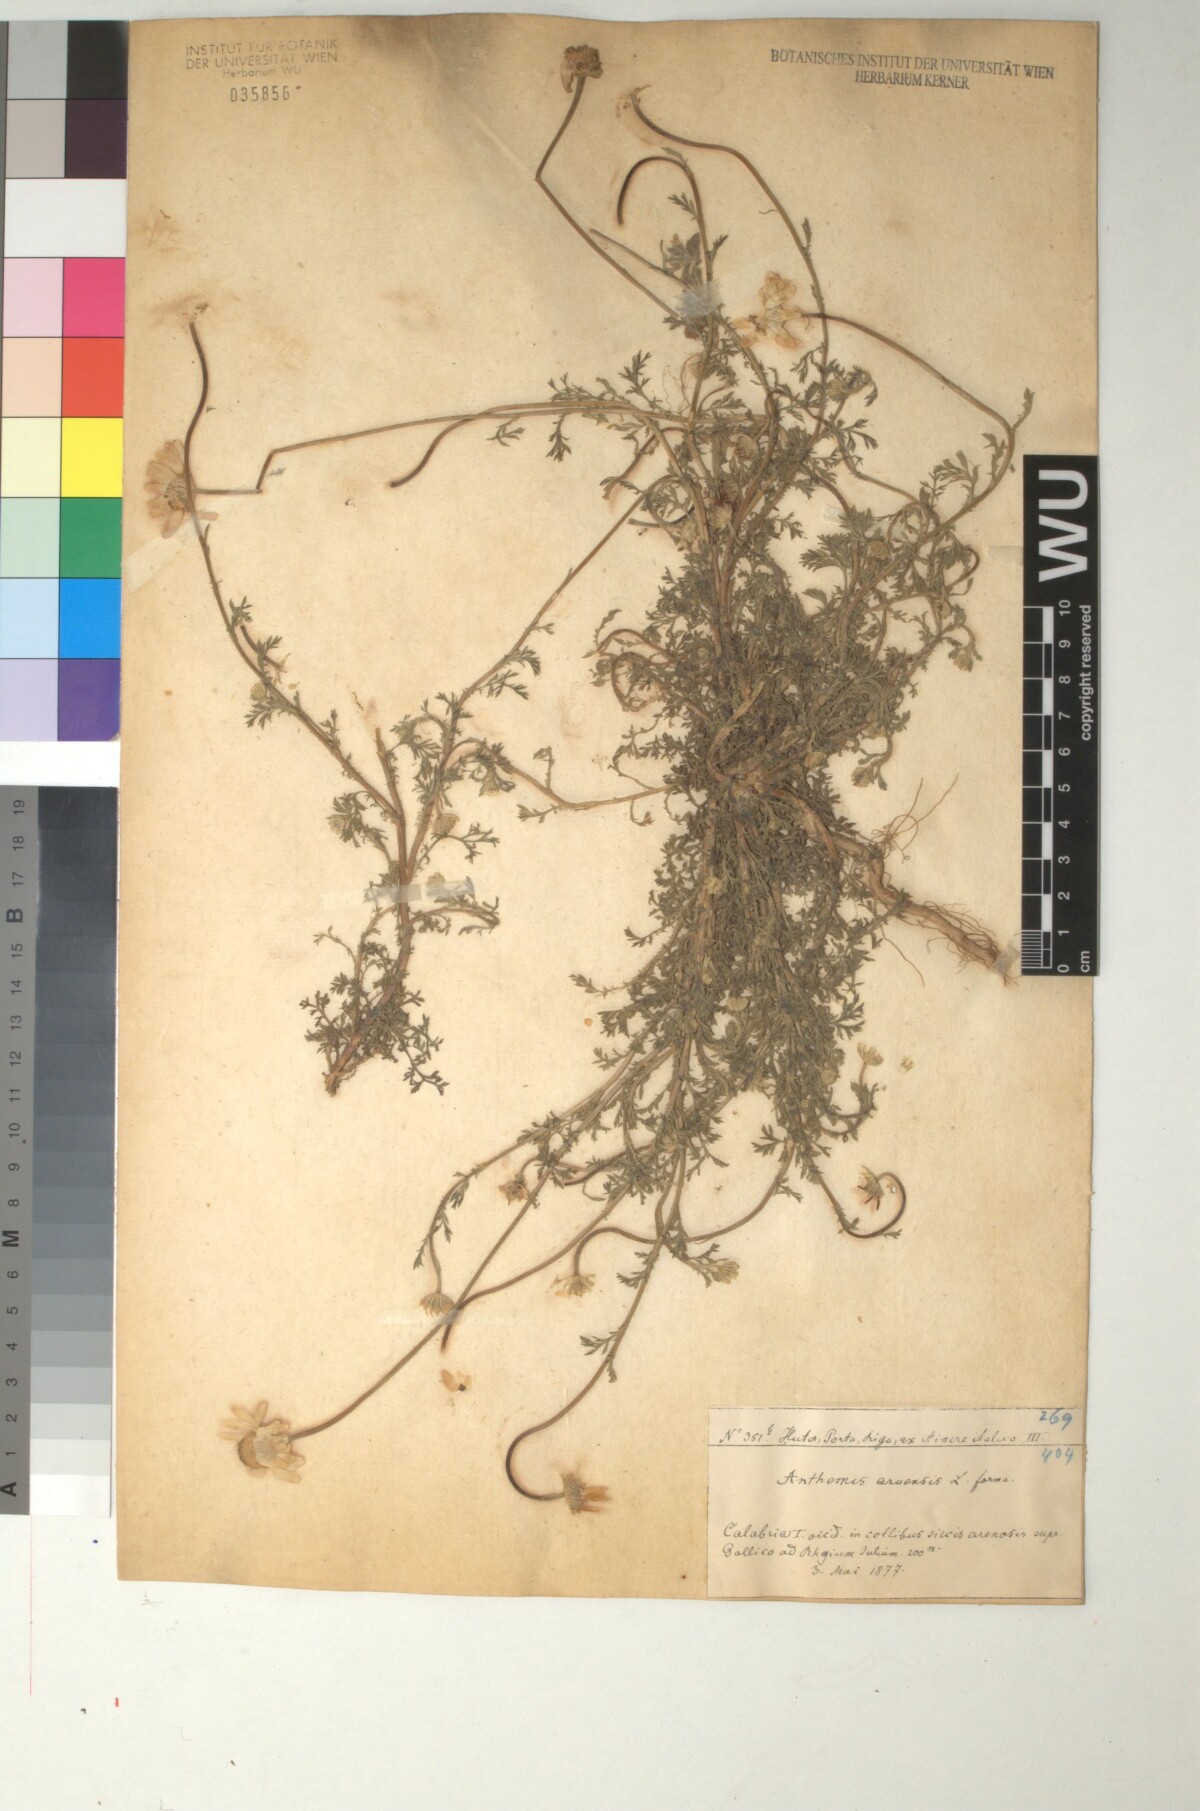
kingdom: Plantae
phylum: Tracheophyta
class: Magnoliopsida
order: Asterales
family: Asteraceae
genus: Anthemis
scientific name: Anthemis arvensis
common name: Corn chamomile
